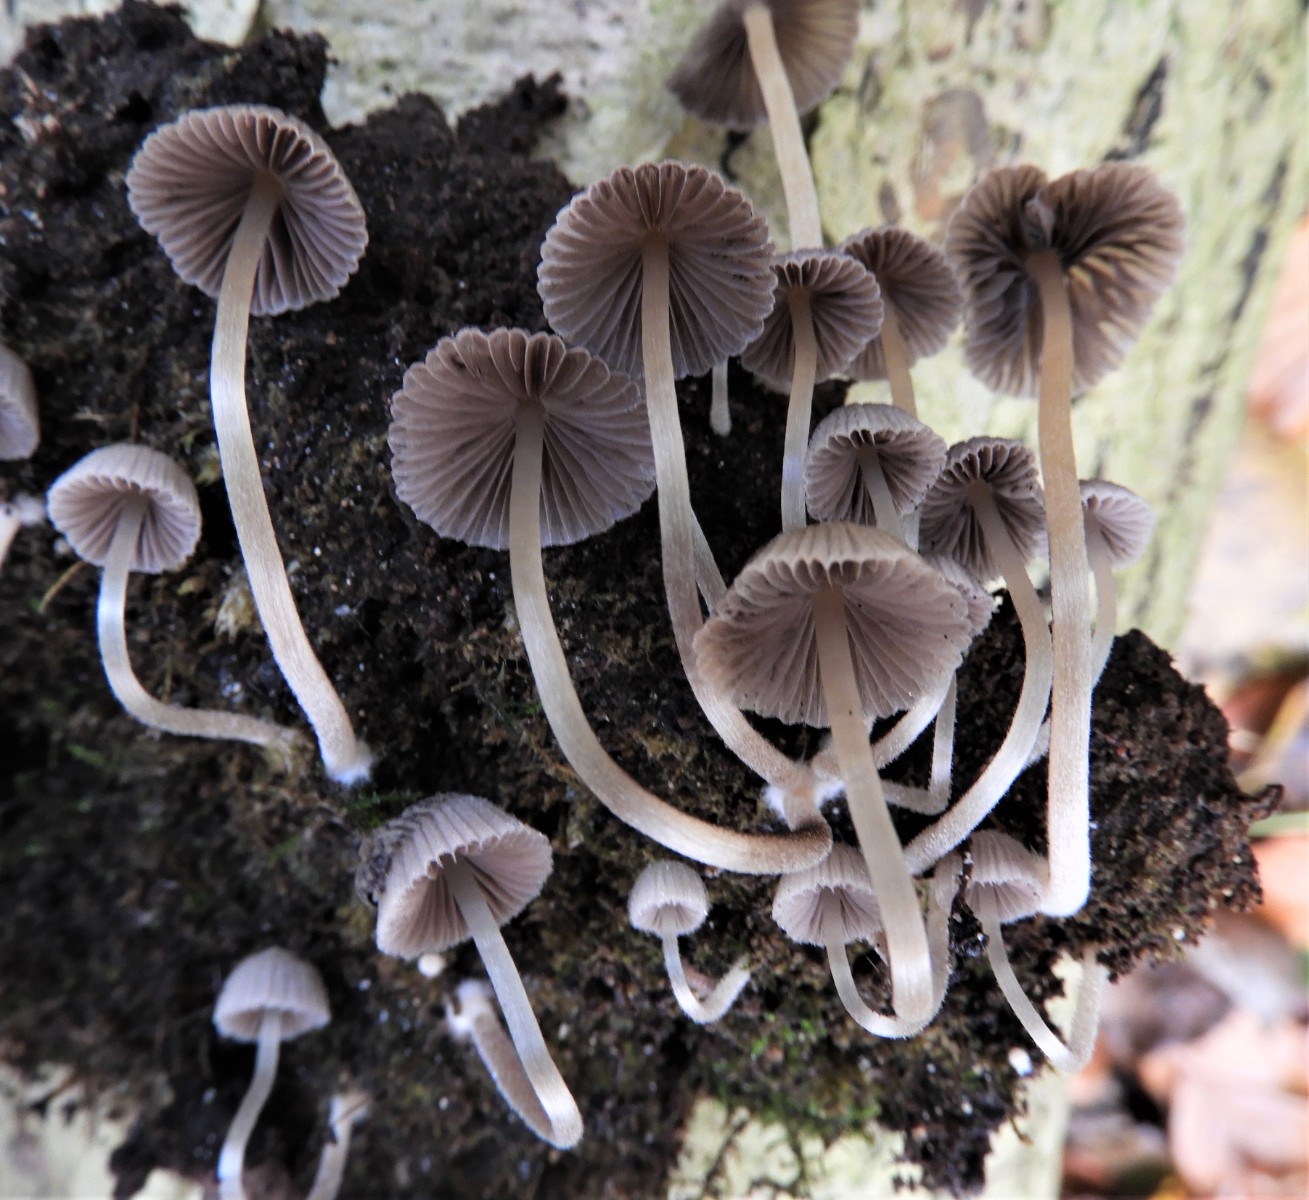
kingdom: Fungi
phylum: Basidiomycota
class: Agaricomycetes
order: Agaricales
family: Psathyrellaceae
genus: Coprinellus
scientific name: Coprinellus disseminatus
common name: bredsået blækhat
